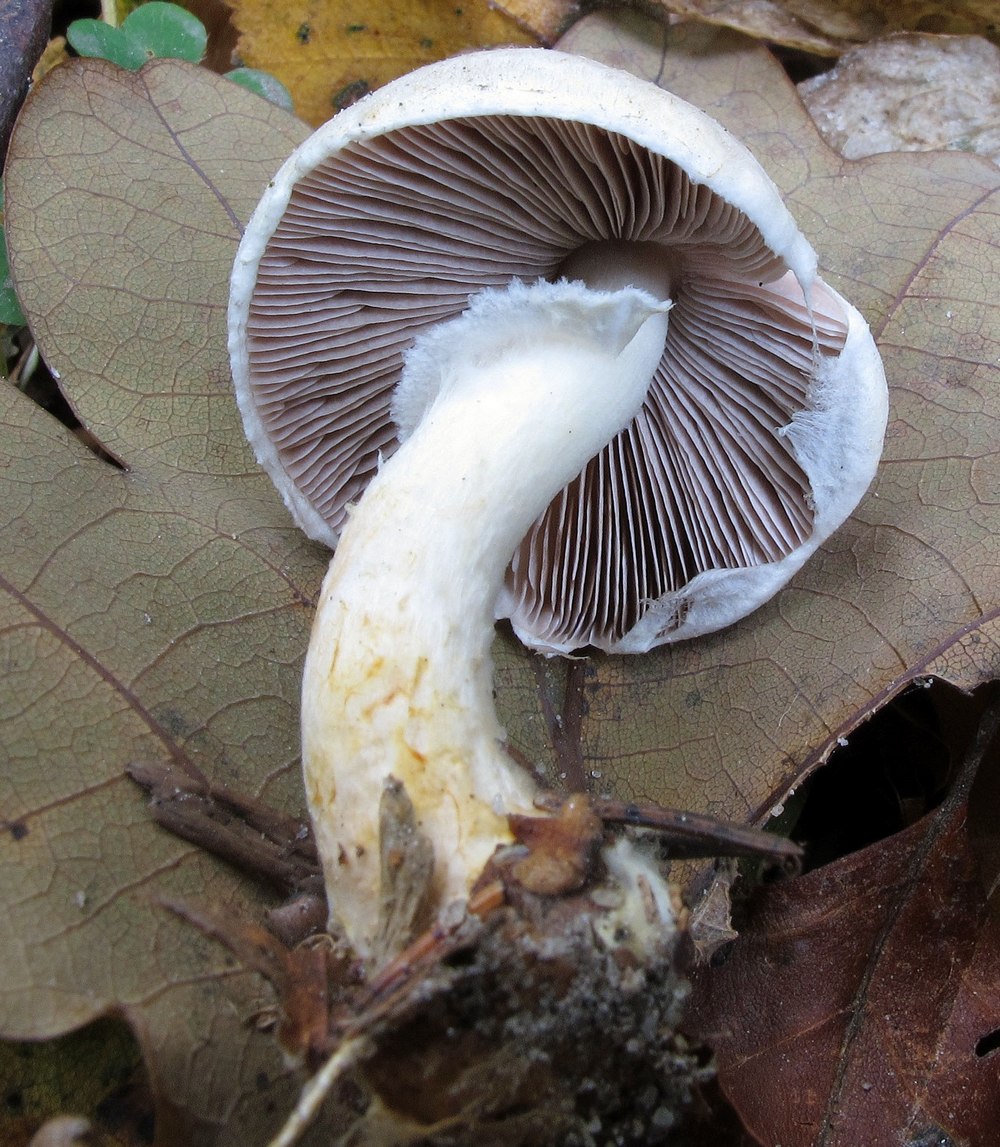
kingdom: Fungi
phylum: Basidiomycota
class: Agaricomycetes
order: Agaricales
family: Agaricaceae
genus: Agaricus
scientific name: Agaricus dulcidulus
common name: blegrød champignon
